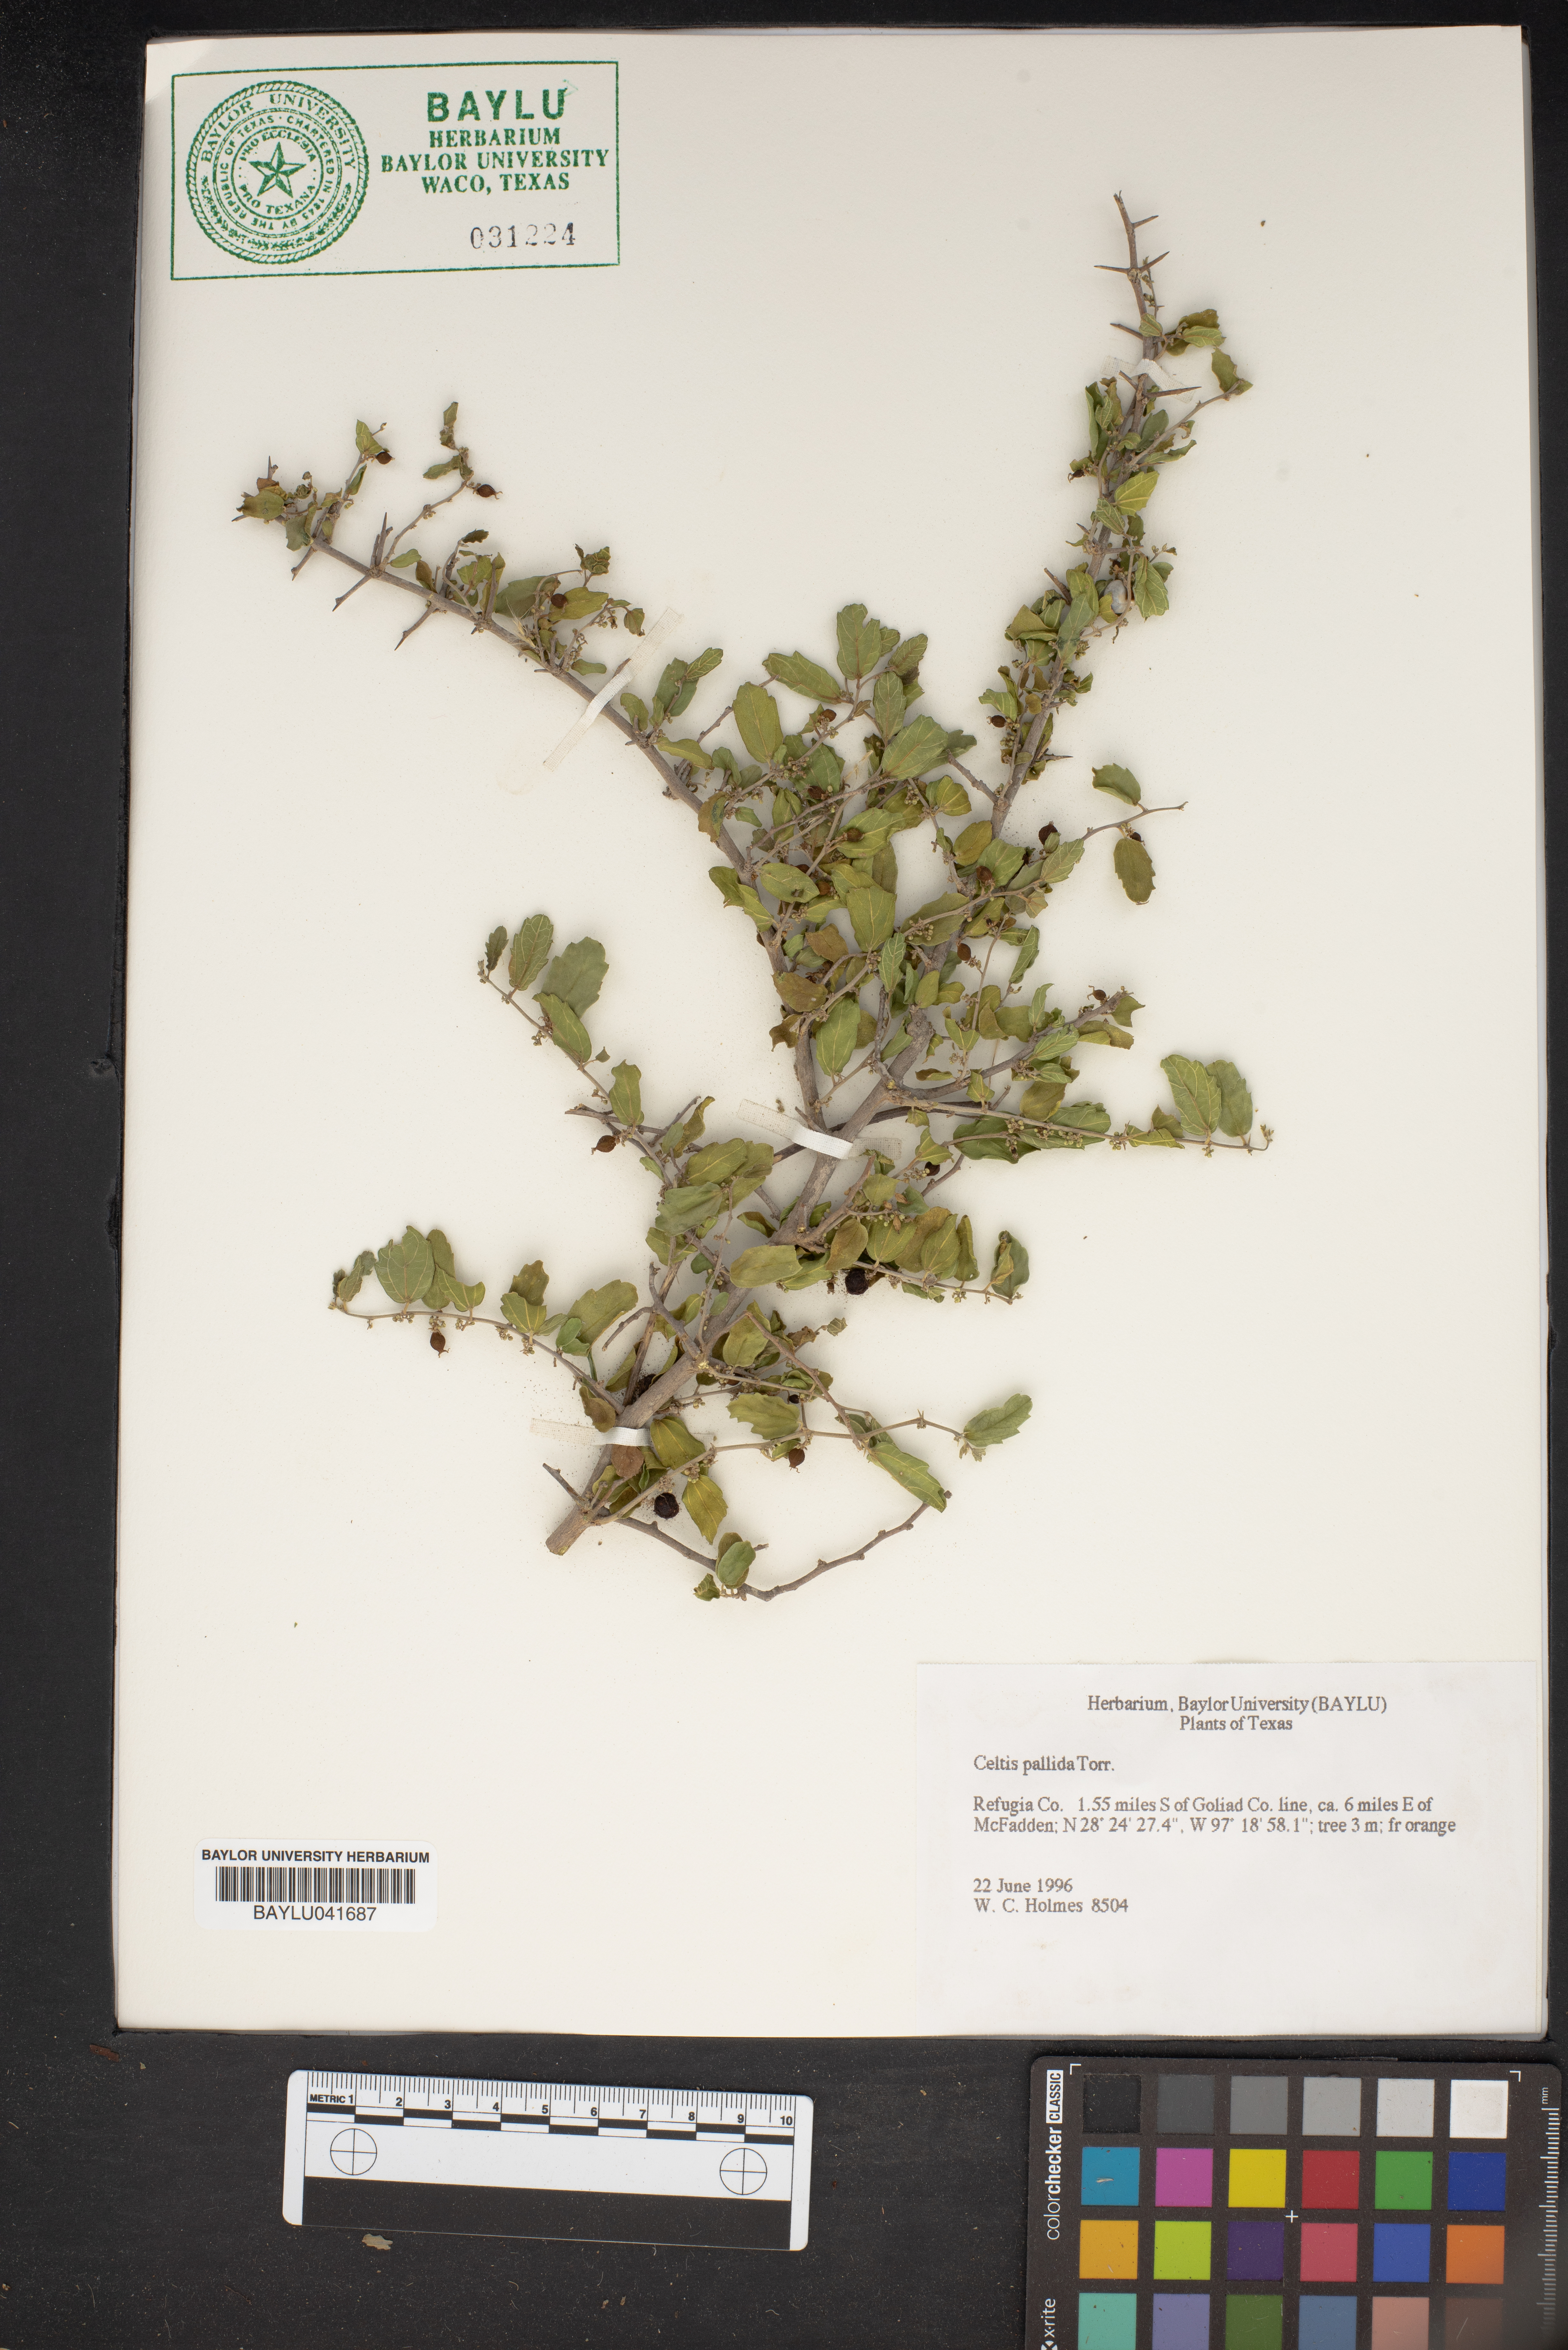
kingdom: Plantae
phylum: Tracheophyta
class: Magnoliopsida
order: Rosales
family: Cannabaceae
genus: Celtis
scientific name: Celtis pallida
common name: Desert hackberry
